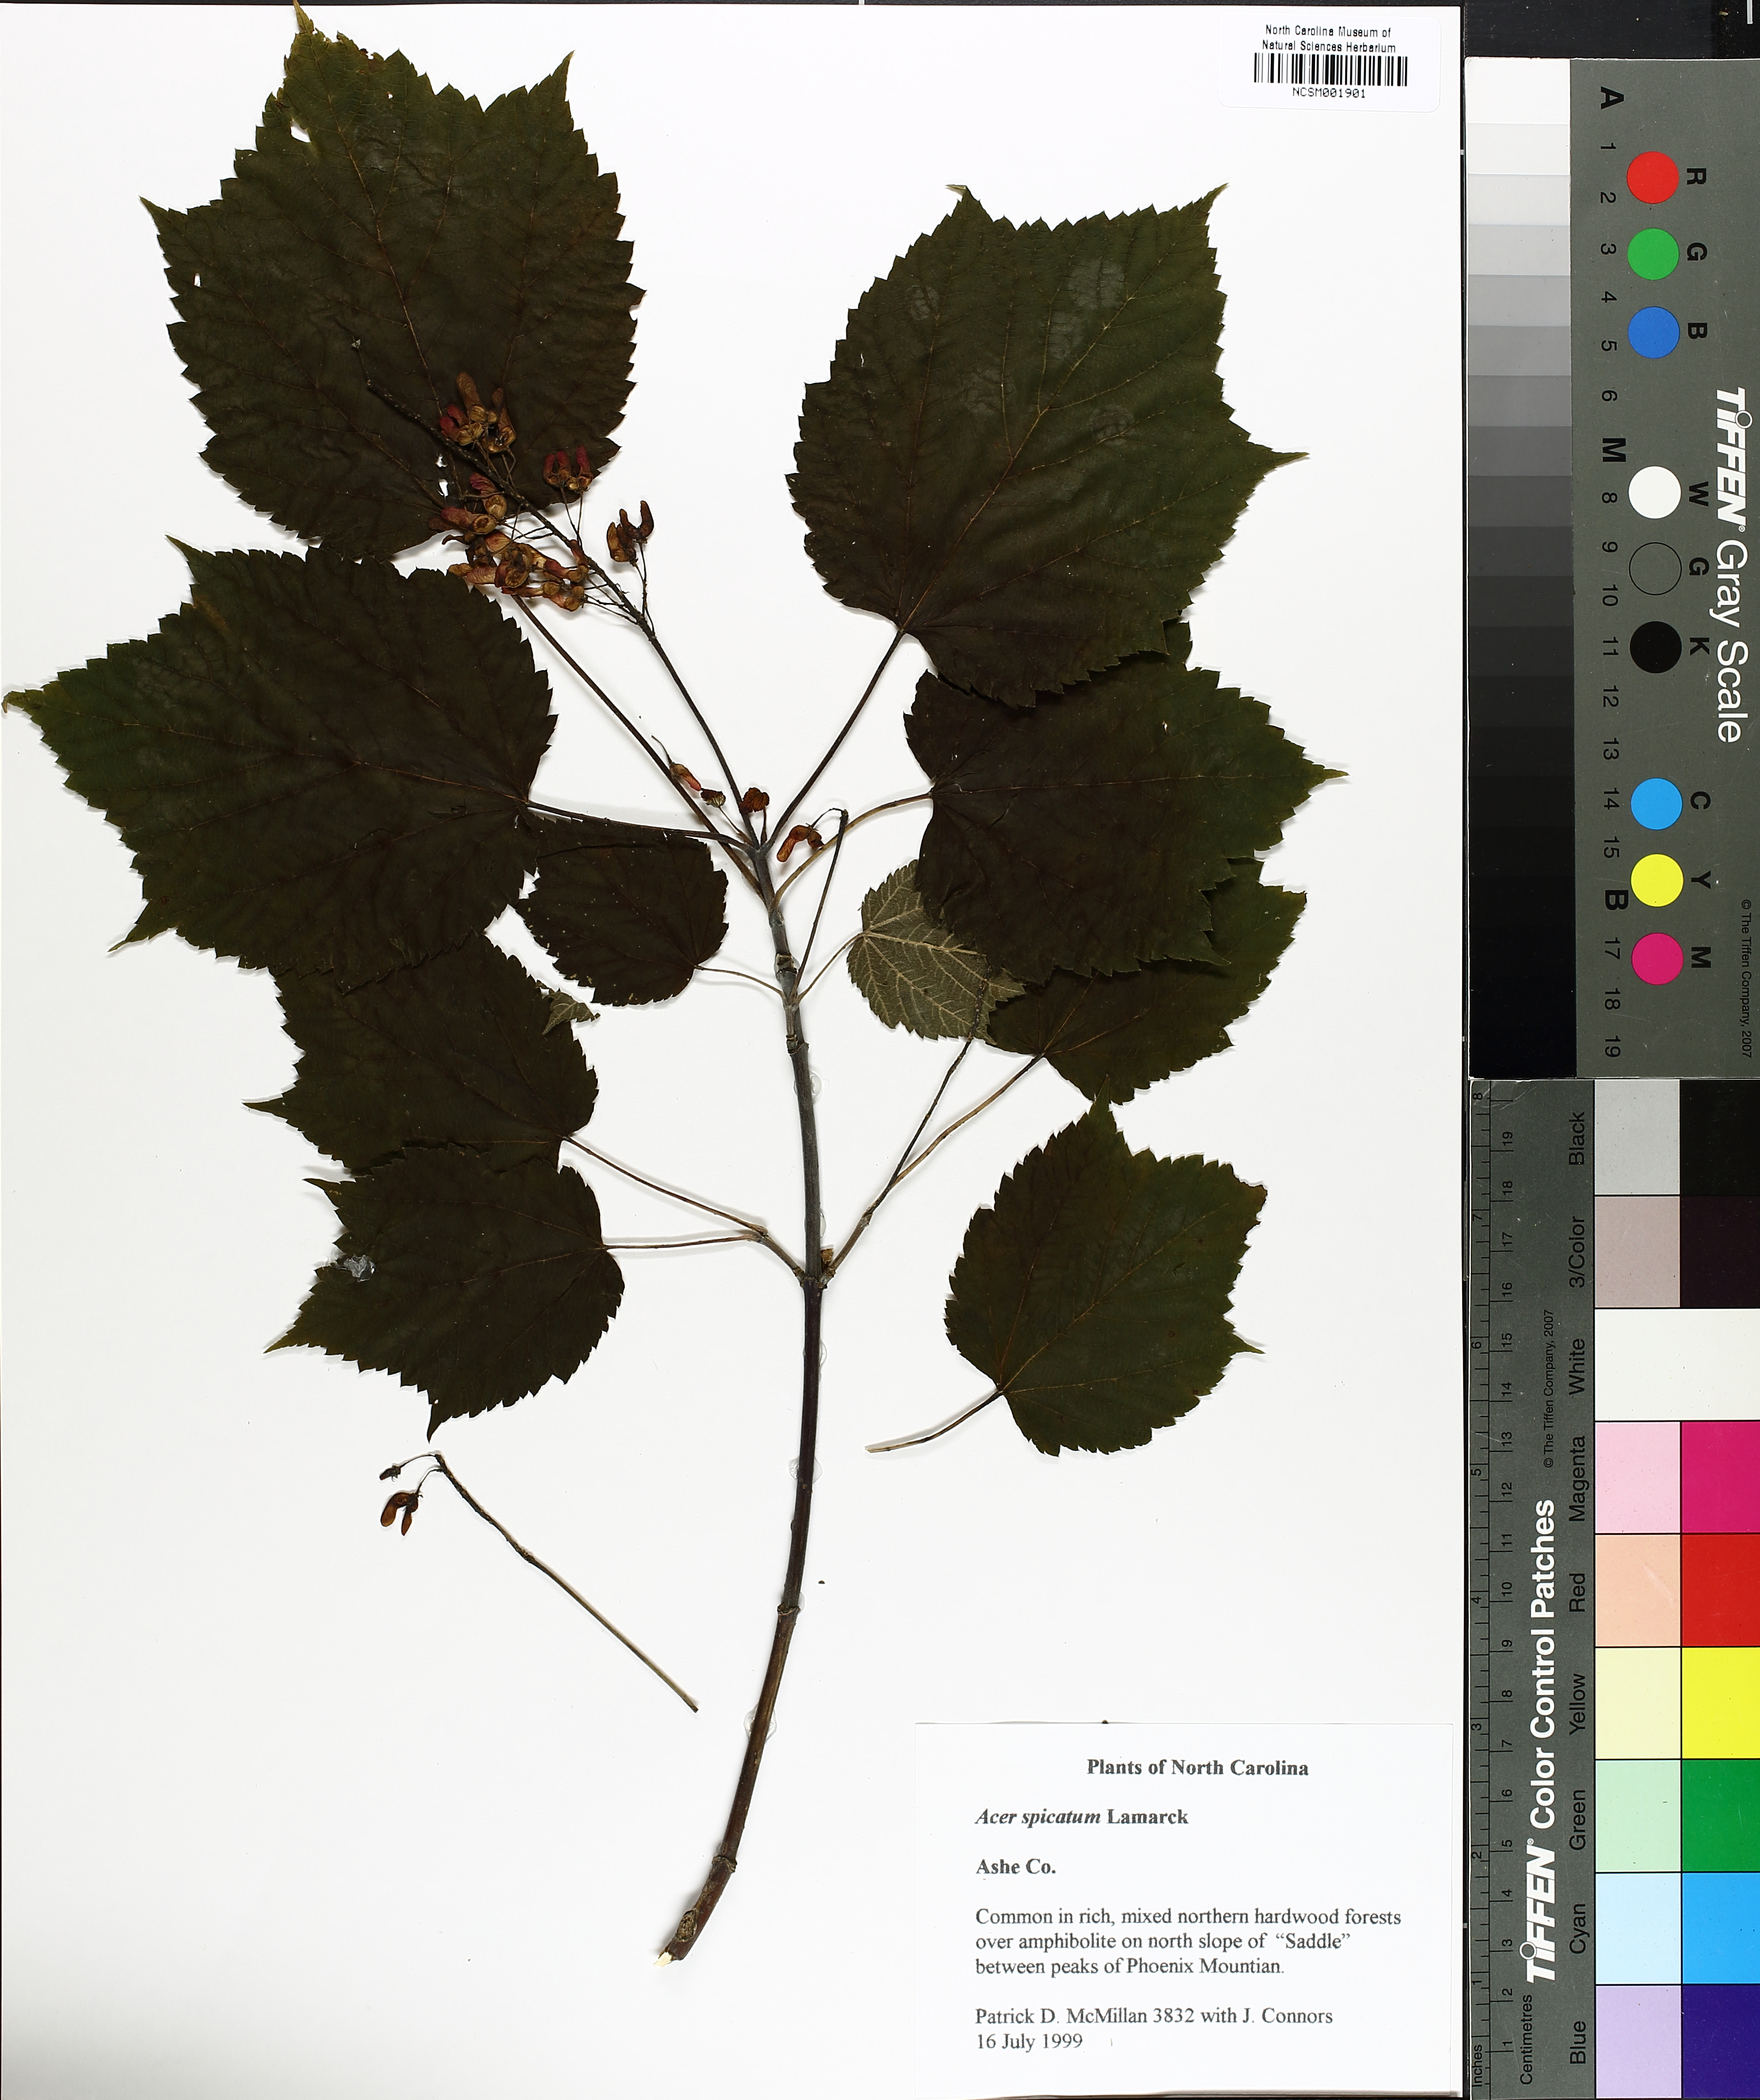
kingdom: Plantae
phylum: Tracheophyta
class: Magnoliopsida
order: Sapindales
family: Sapindaceae
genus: Acer
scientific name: Acer spicatum
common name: Mountain maple
